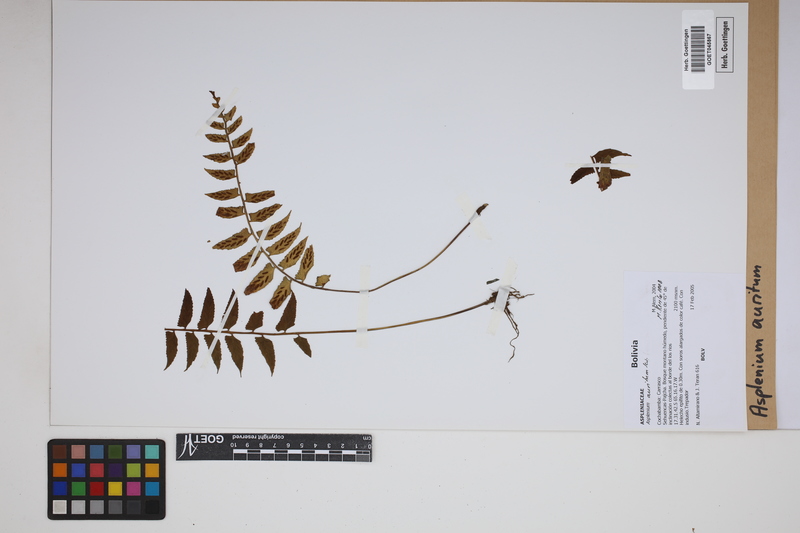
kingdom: Plantae
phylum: Tracheophyta
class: Polypodiopsida
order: Polypodiales
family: Aspleniaceae
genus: Asplenium
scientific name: Asplenium auritum
